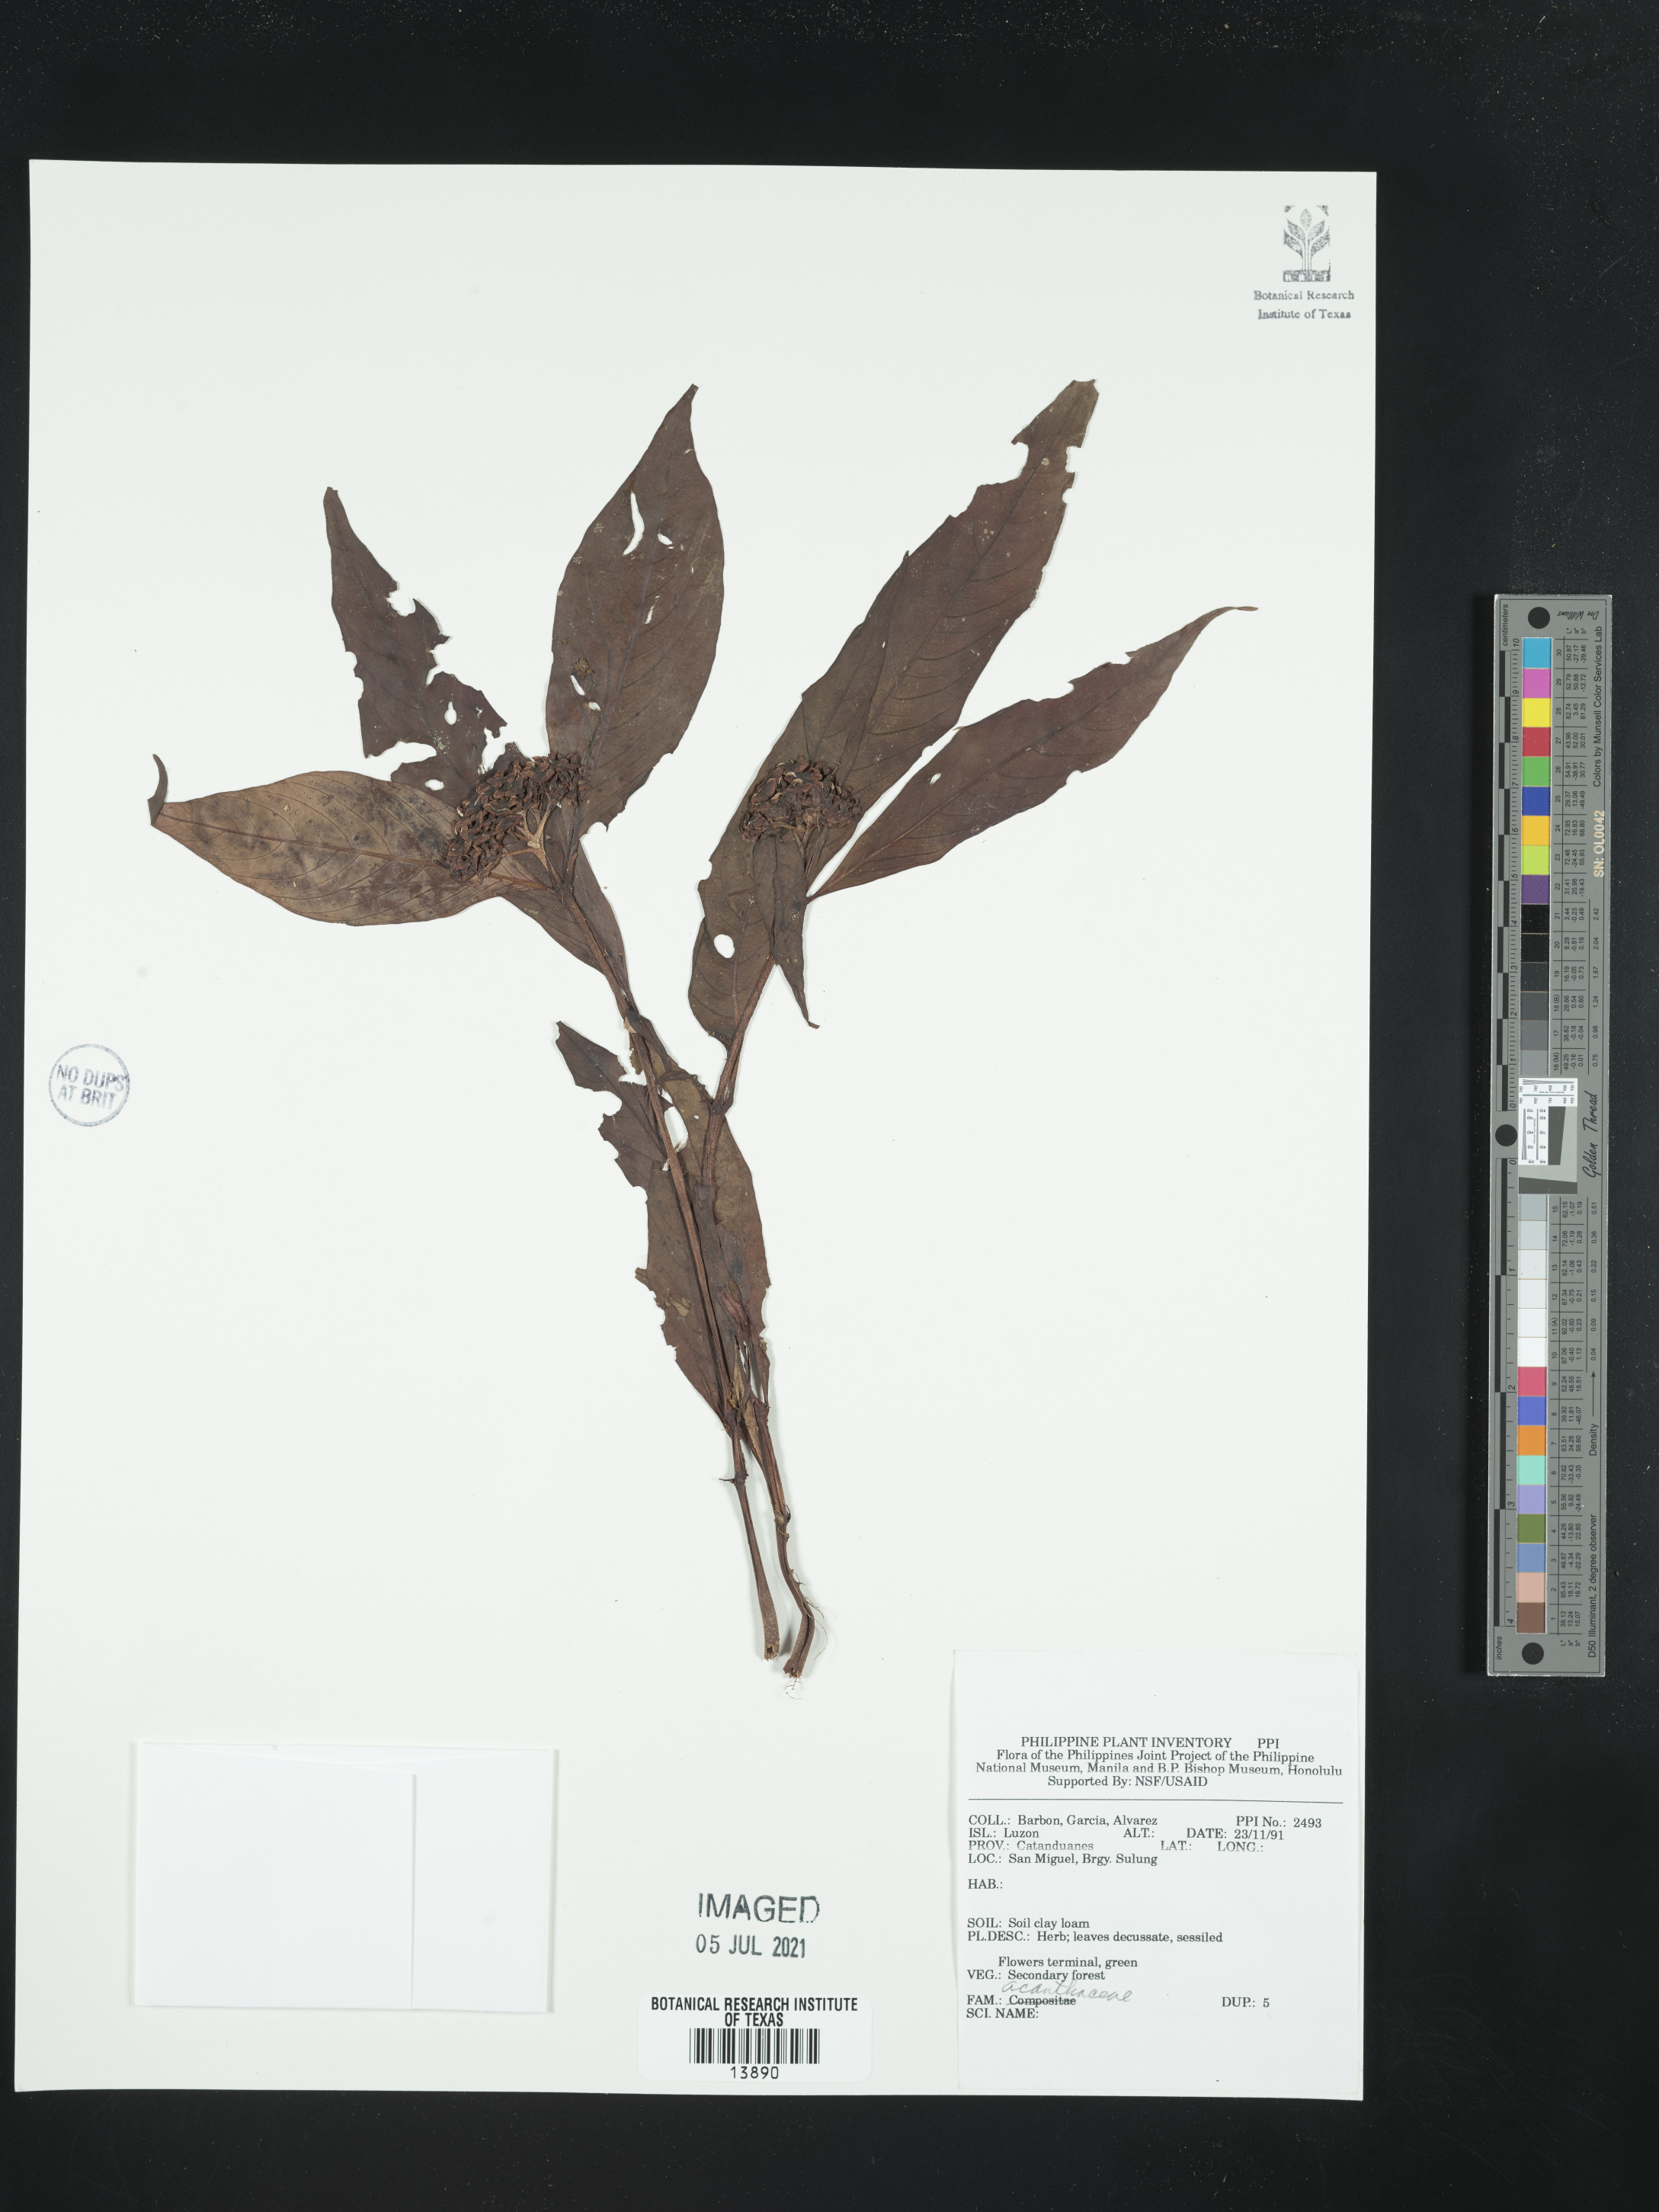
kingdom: Plantae
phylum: Tracheophyta
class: Magnoliopsida
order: Lamiales
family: Acanthaceae
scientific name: Acanthaceae
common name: Acanthaceae
